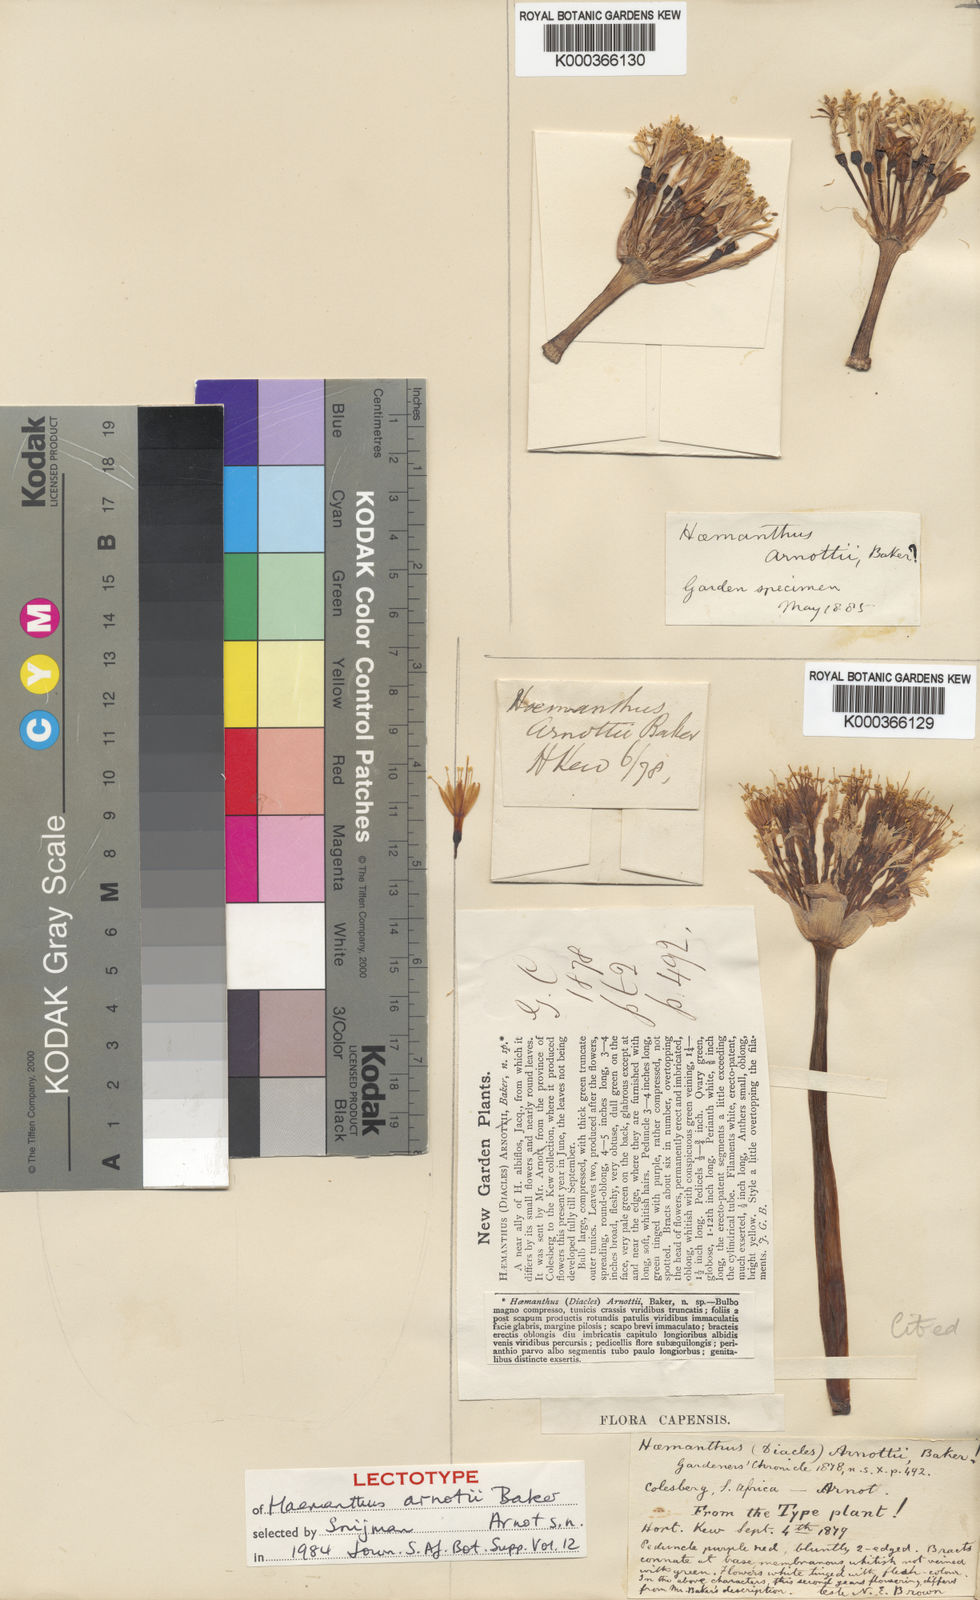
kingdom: Plantae
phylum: Tracheophyta
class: Liliopsida
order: Asparagales
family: Amaryllidaceae
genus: Haemanthus
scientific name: Haemanthus humilis
